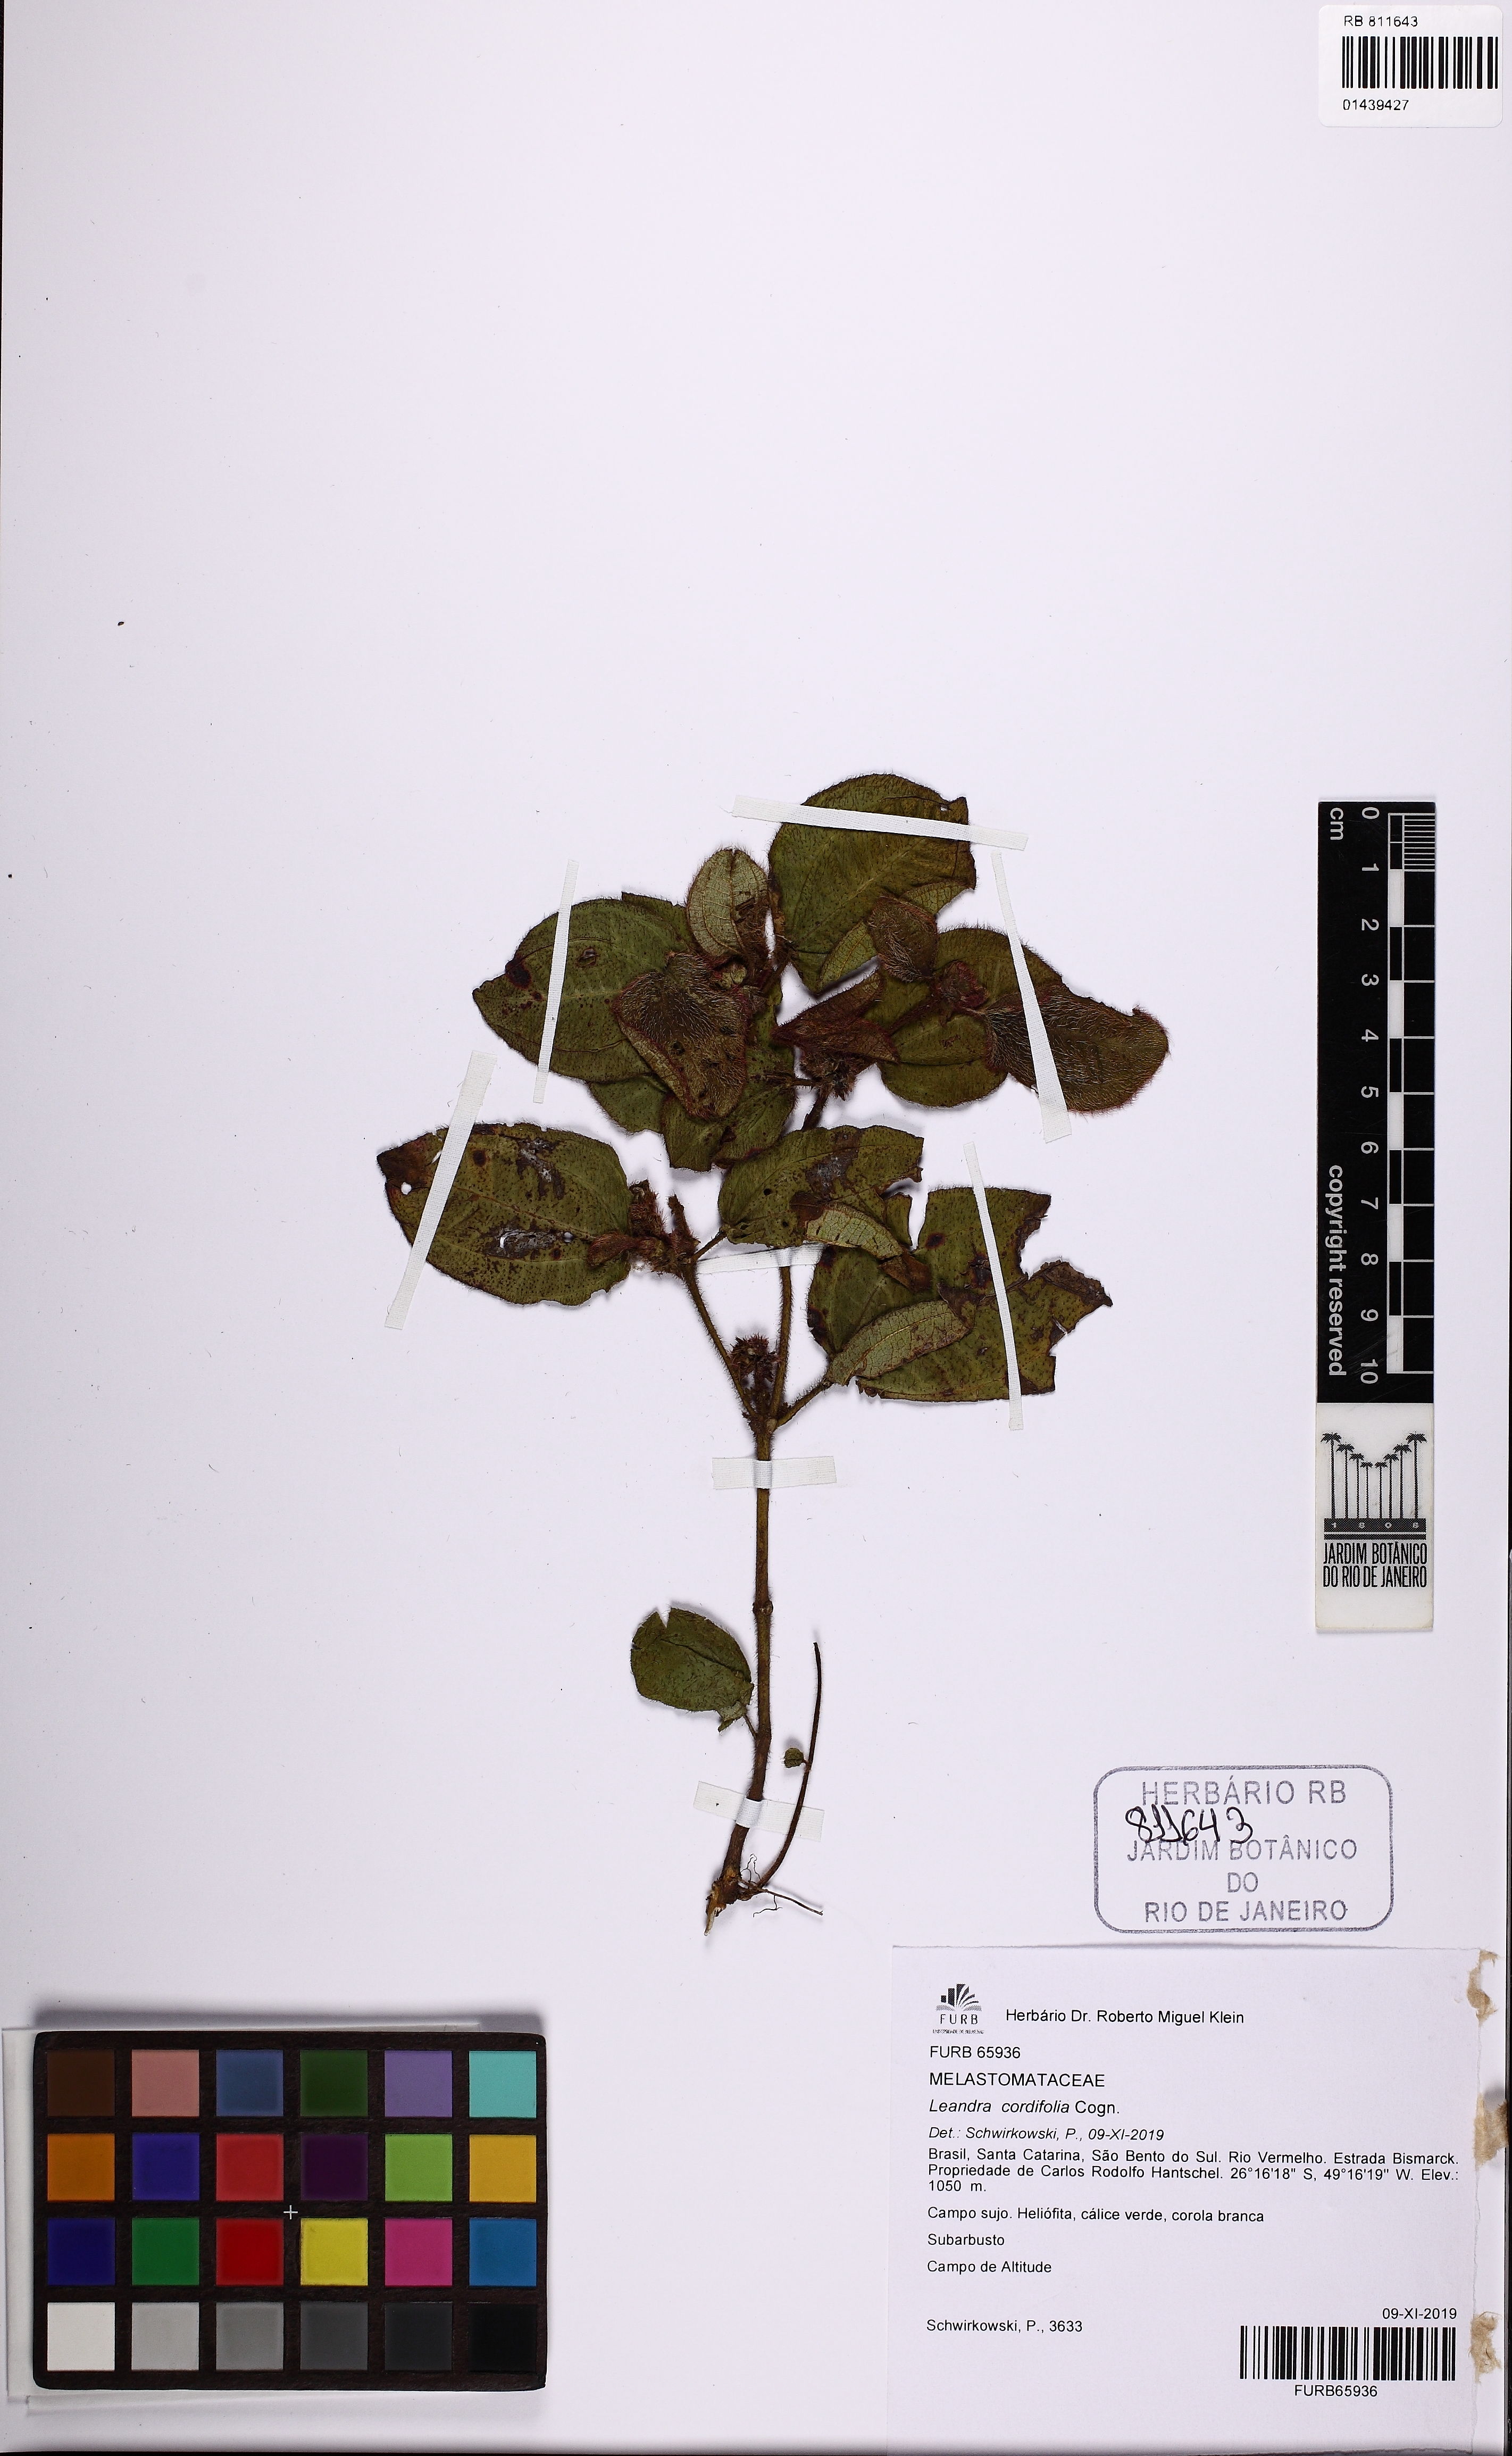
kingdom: Plantae
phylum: Tracheophyta
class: Magnoliopsida
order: Myrtales
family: Melastomataceae
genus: Miconia
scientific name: Miconia leacordifolia
